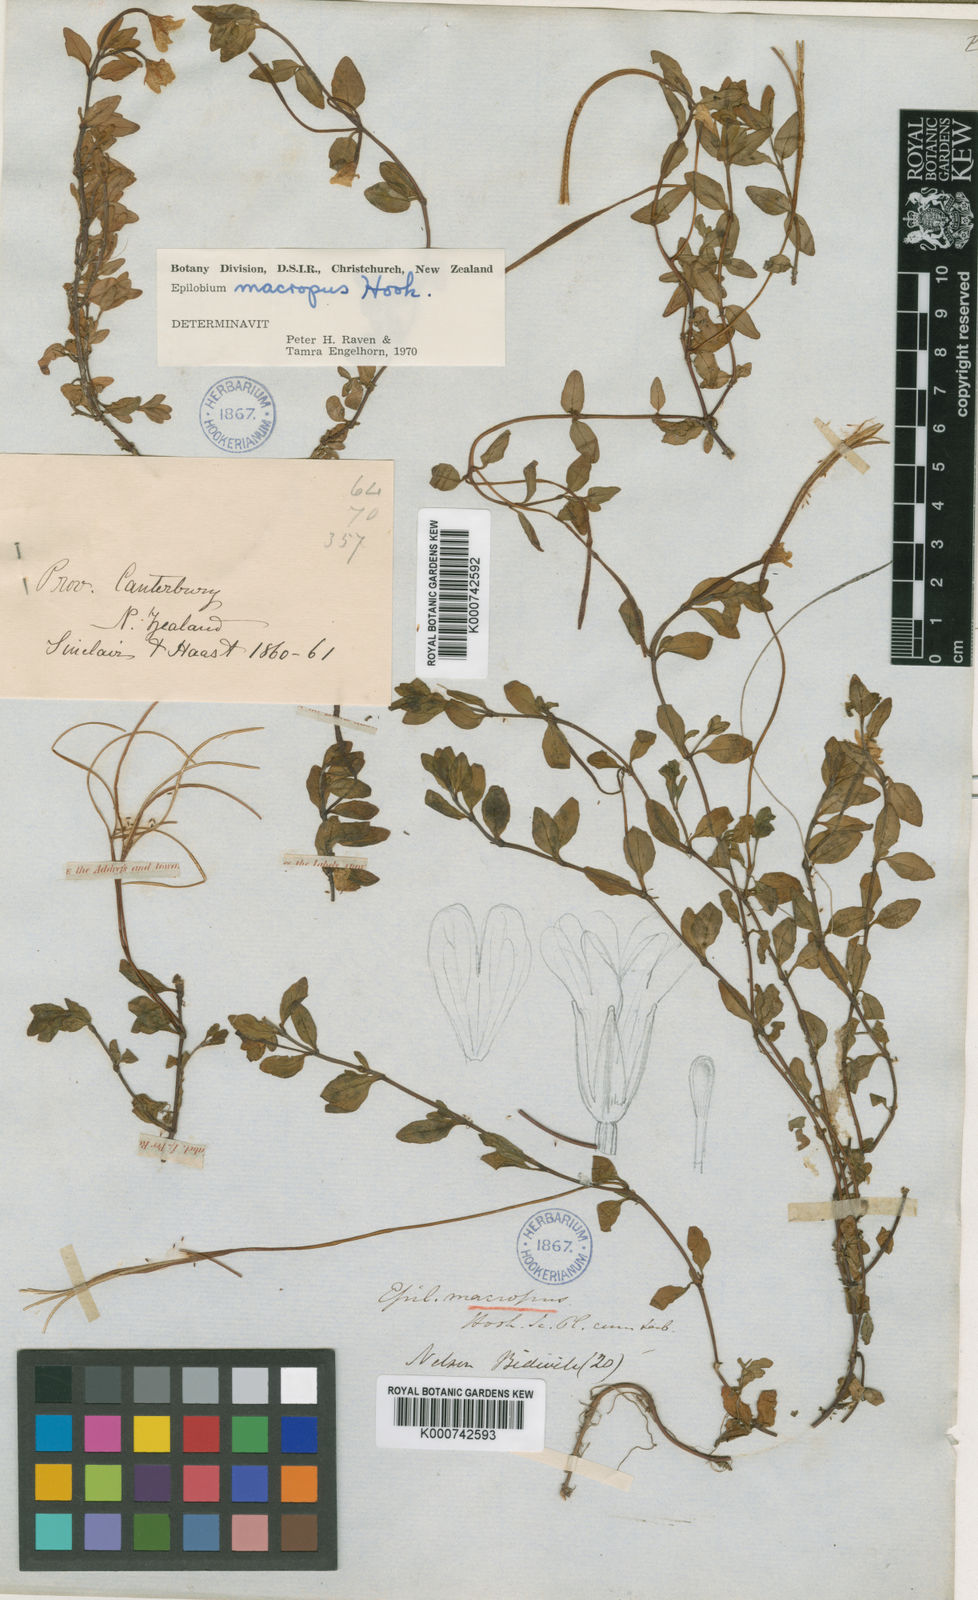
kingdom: Plantae
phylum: Tracheophyta
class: Magnoliopsida
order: Myrtales
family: Onagraceae
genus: Epilobium
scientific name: Epilobium macropus
